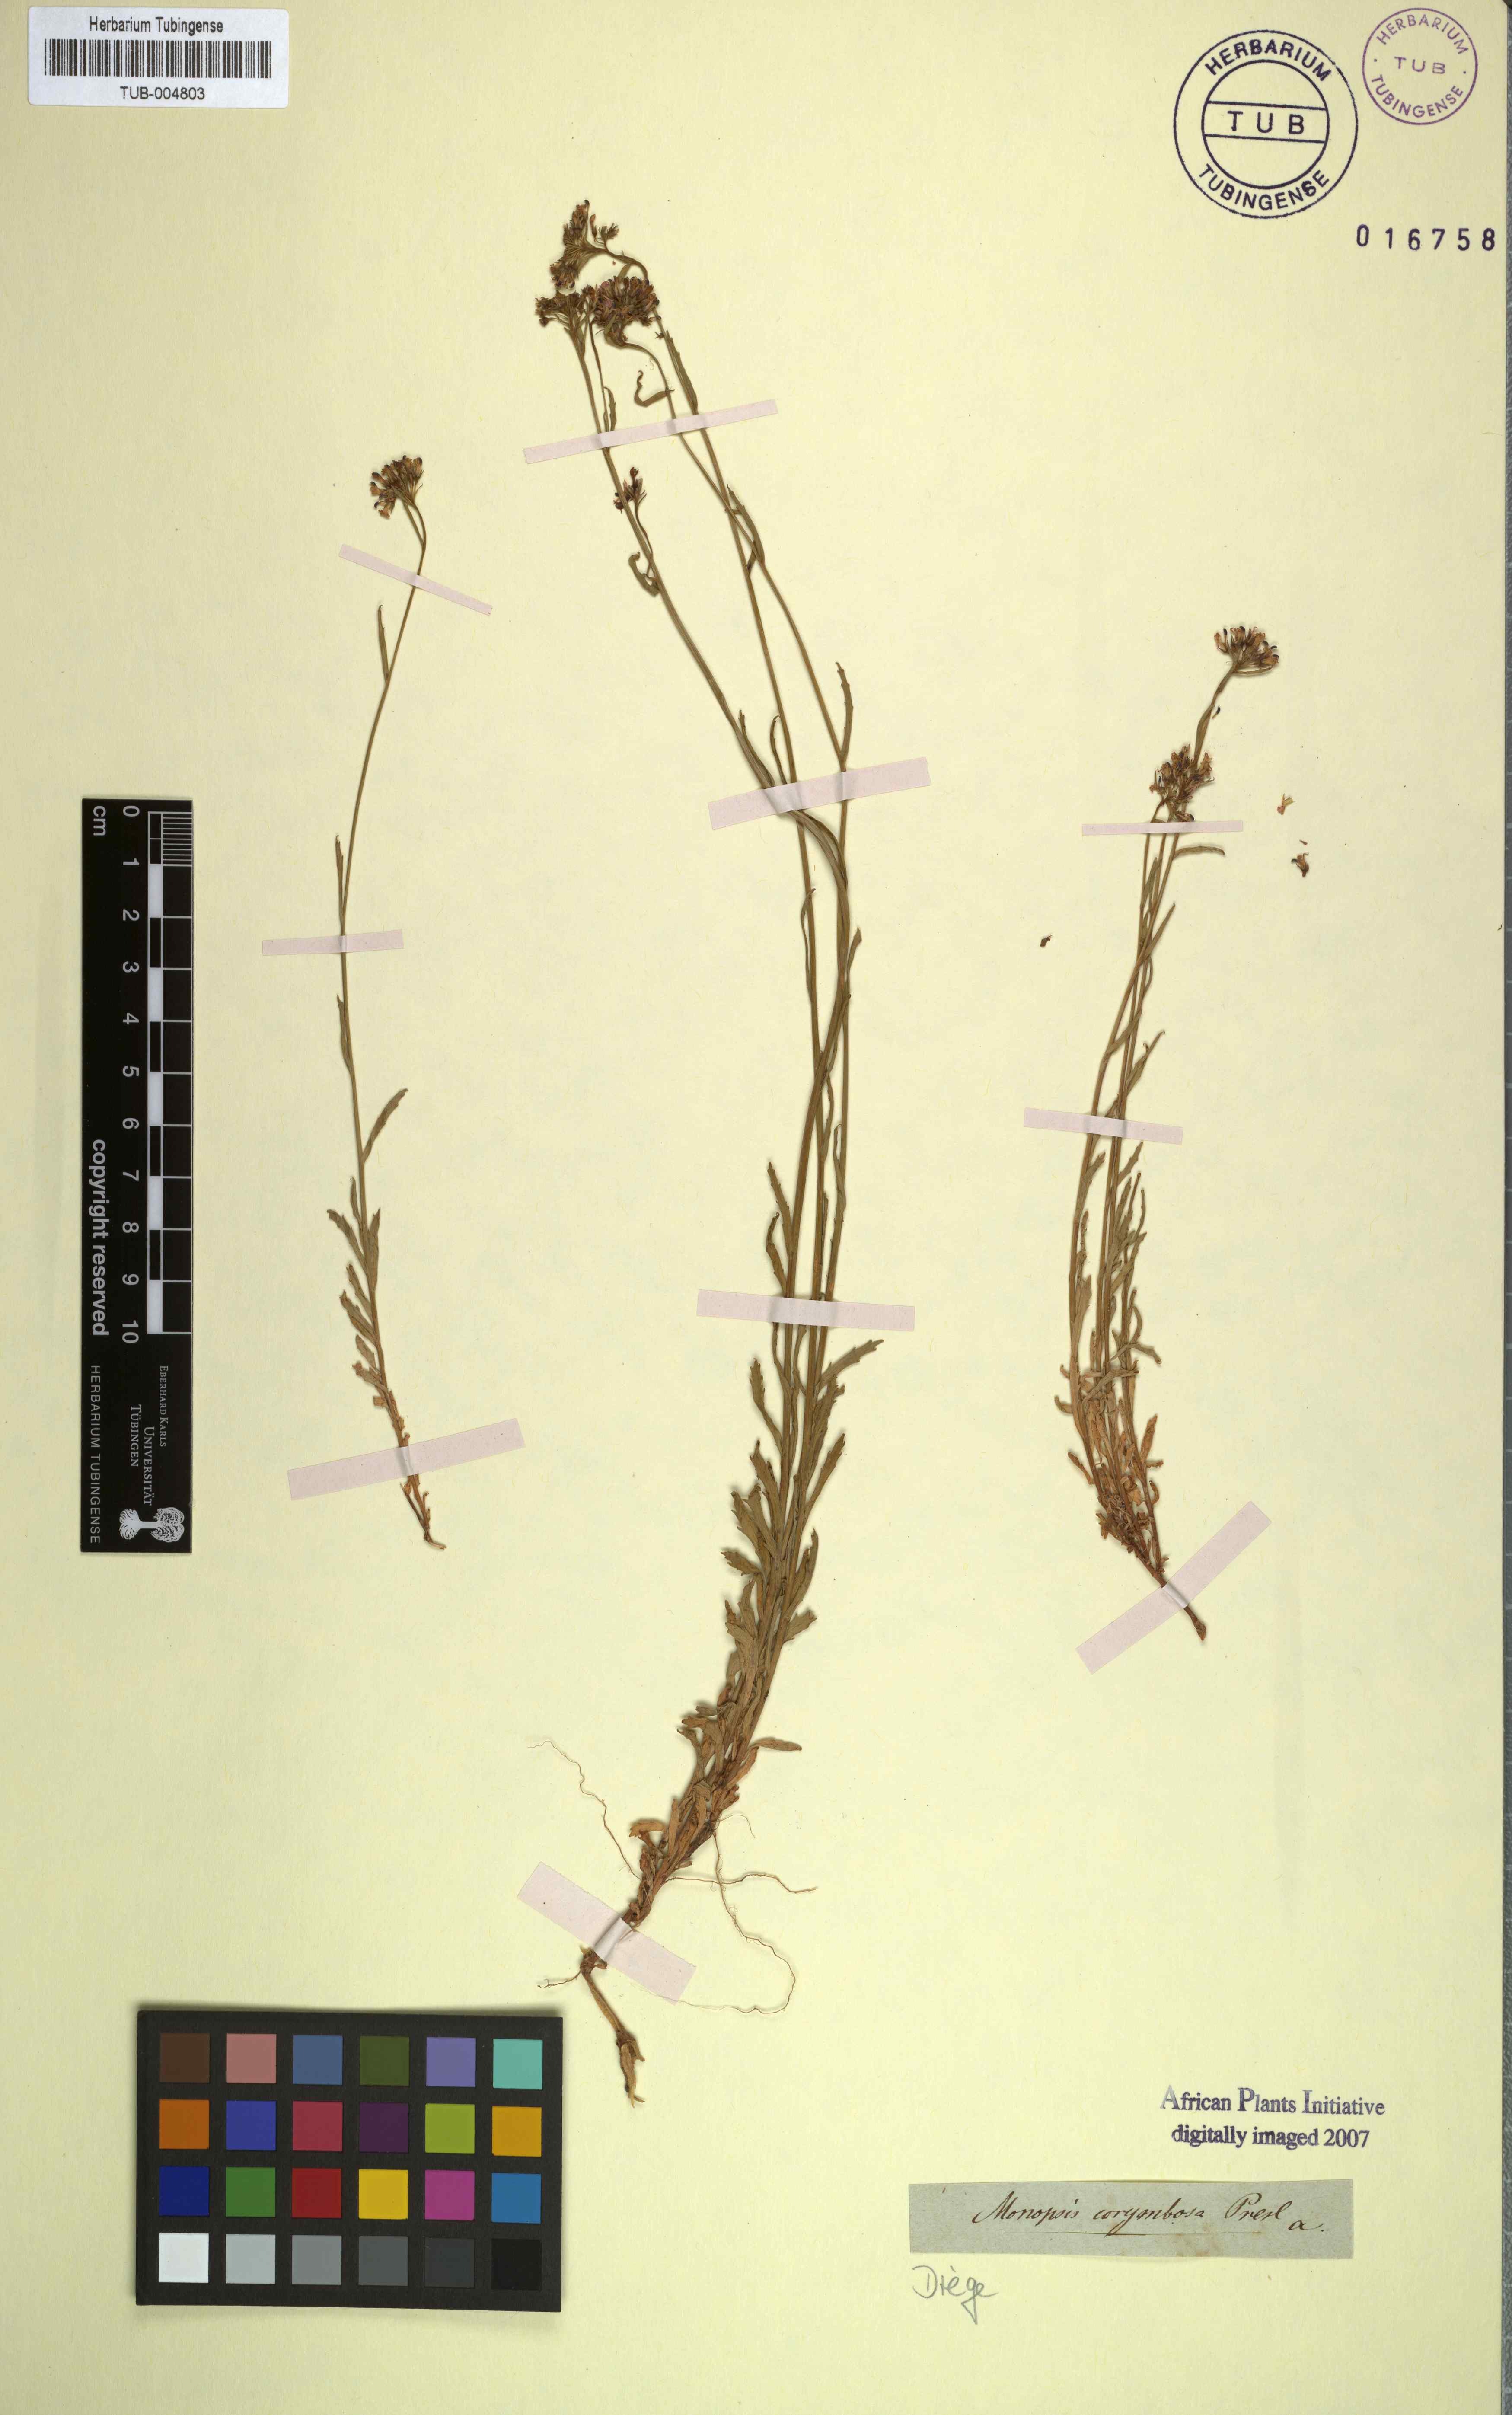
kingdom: Plantae
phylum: Tracheophyta
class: Magnoliopsida
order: Asterales
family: Campanulaceae
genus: Lobelia
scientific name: Lobelia jasionoides
